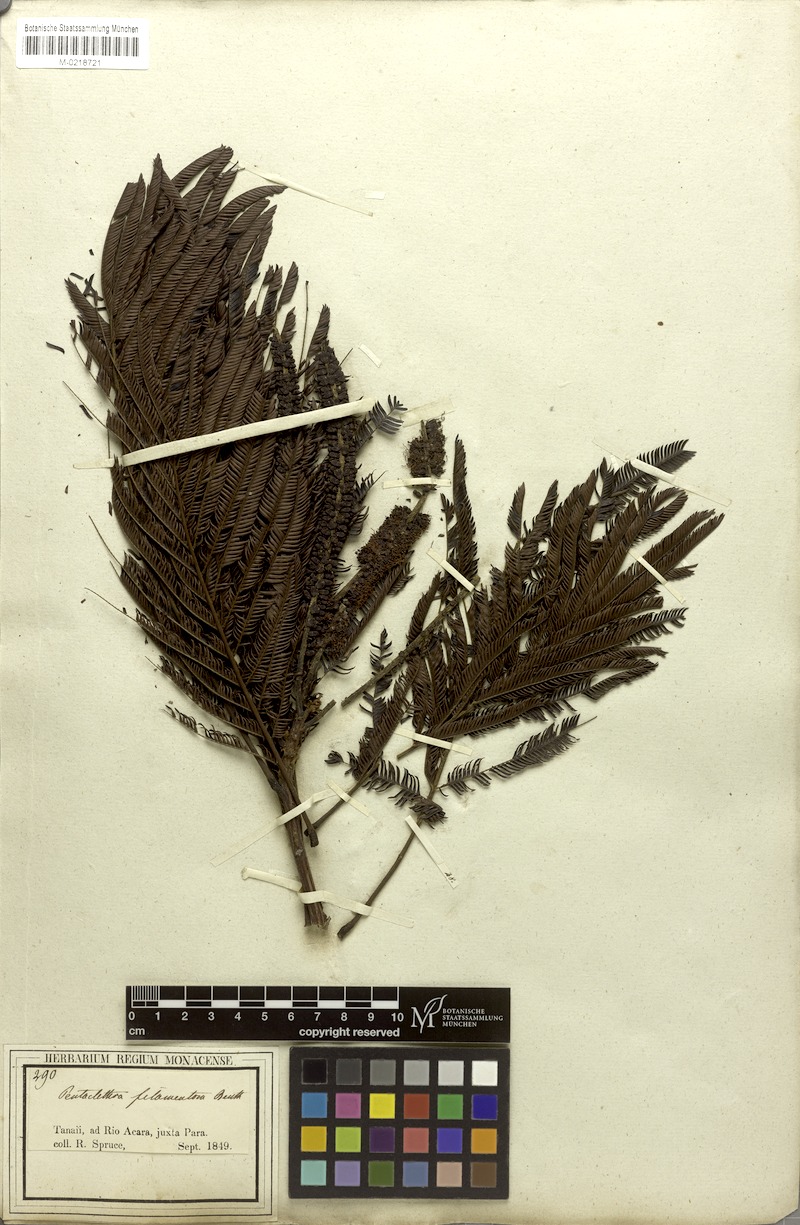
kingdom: Plantae
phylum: Tracheophyta
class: Magnoliopsida
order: Fabales
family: Fabaceae
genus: Pentaclethra
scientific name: Pentaclethra macroloba
